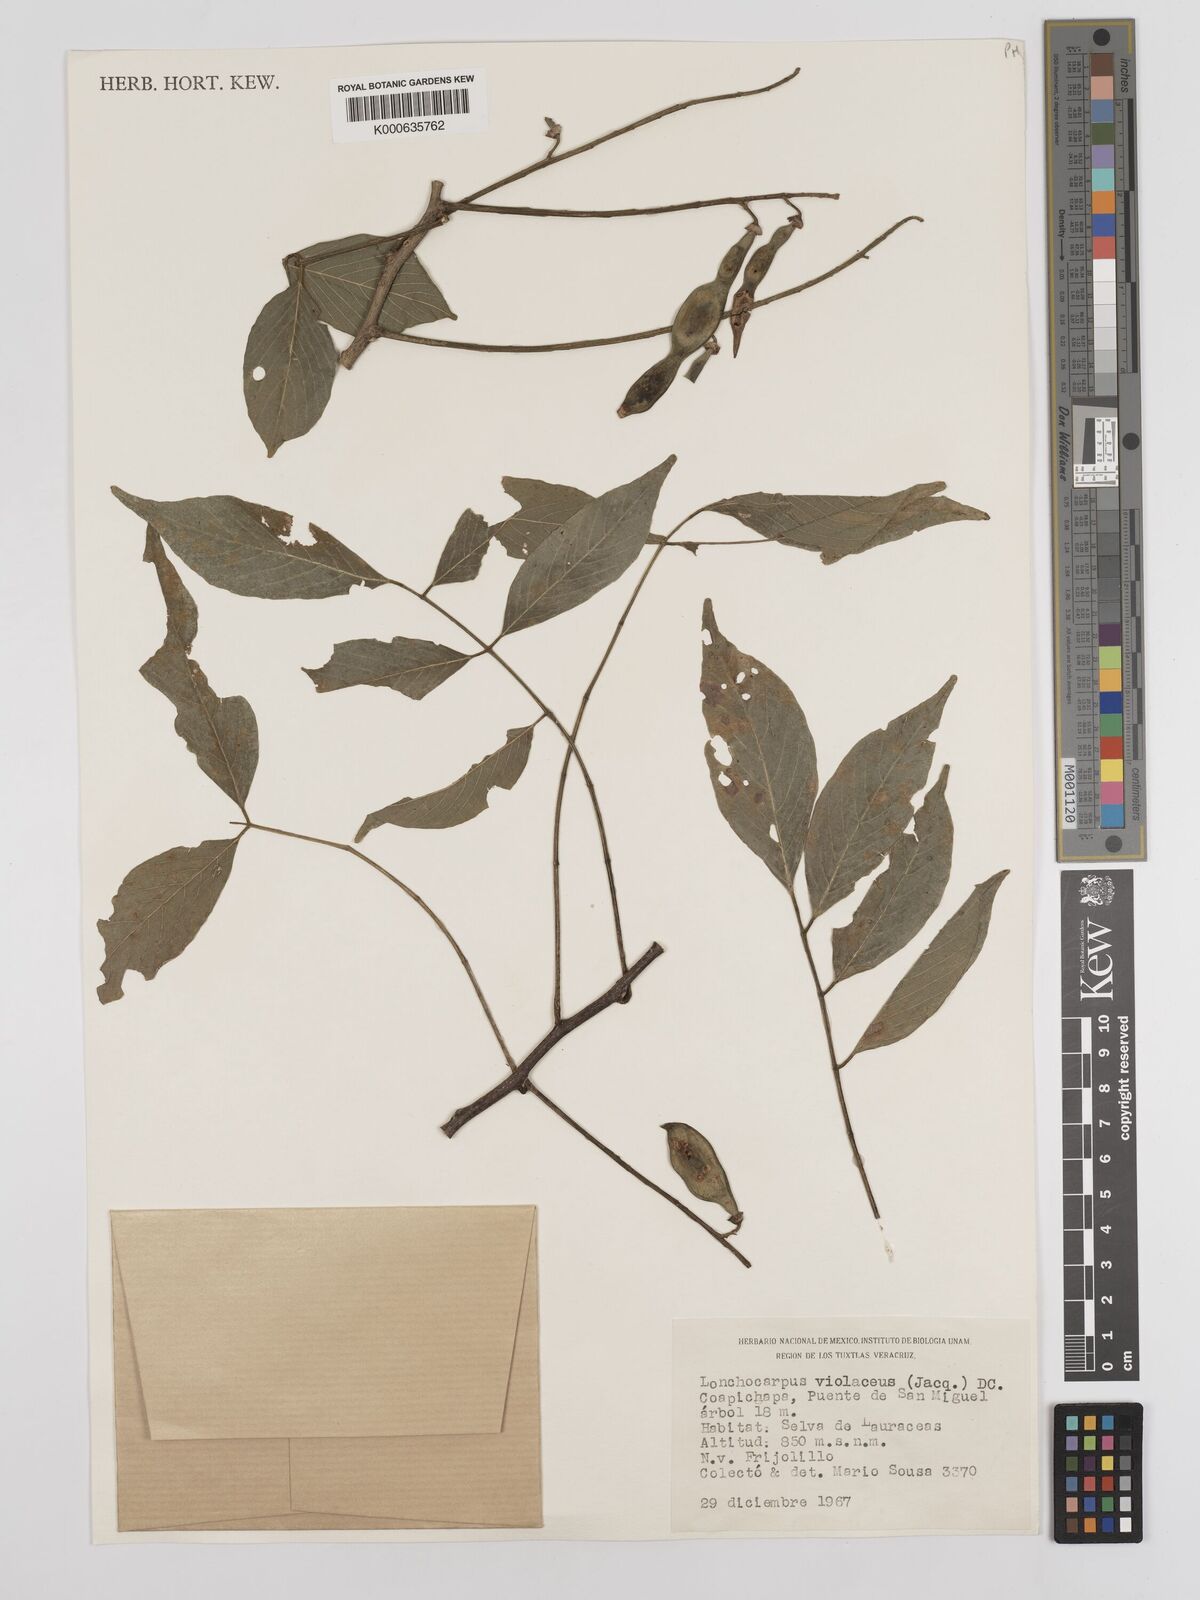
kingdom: Plantae
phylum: Tracheophyta
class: Magnoliopsida
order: Fabales
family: Fabaceae
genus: Lonchocarpus
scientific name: Lonchocarpus
